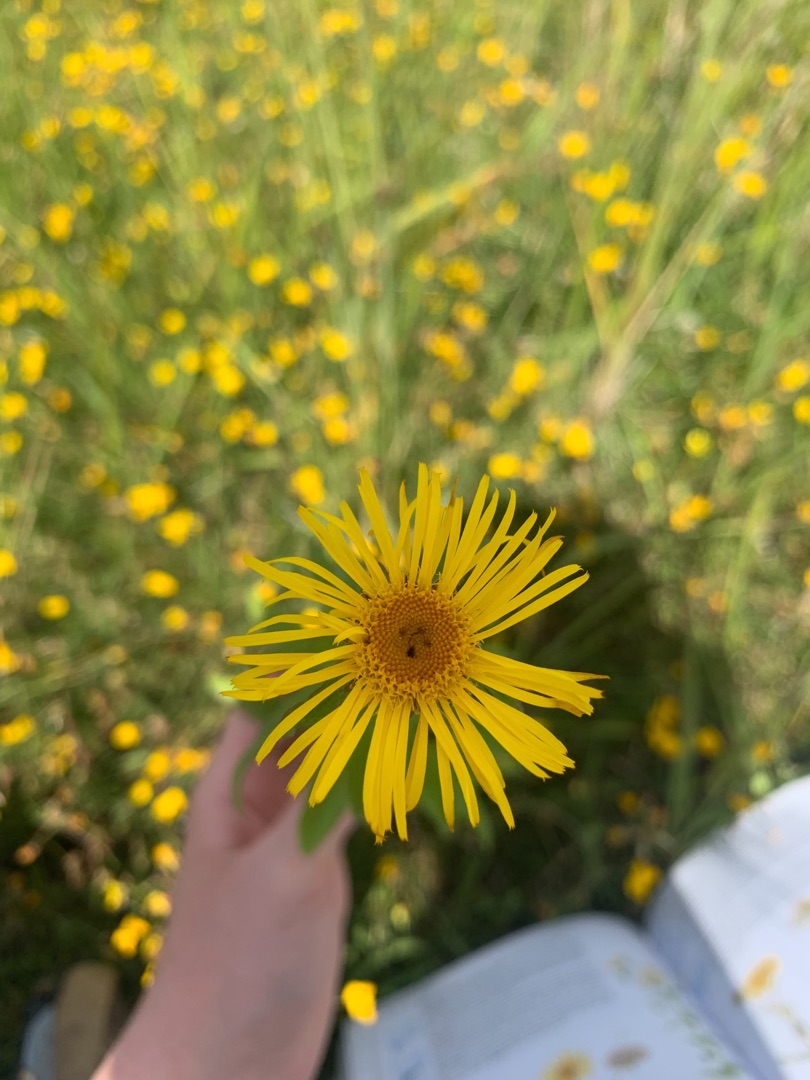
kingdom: Plantae
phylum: Tracheophyta
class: Magnoliopsida
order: Asterales
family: Asteraceae
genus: Pentanema
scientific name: Pentanema salicinum
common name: Pile-alant
